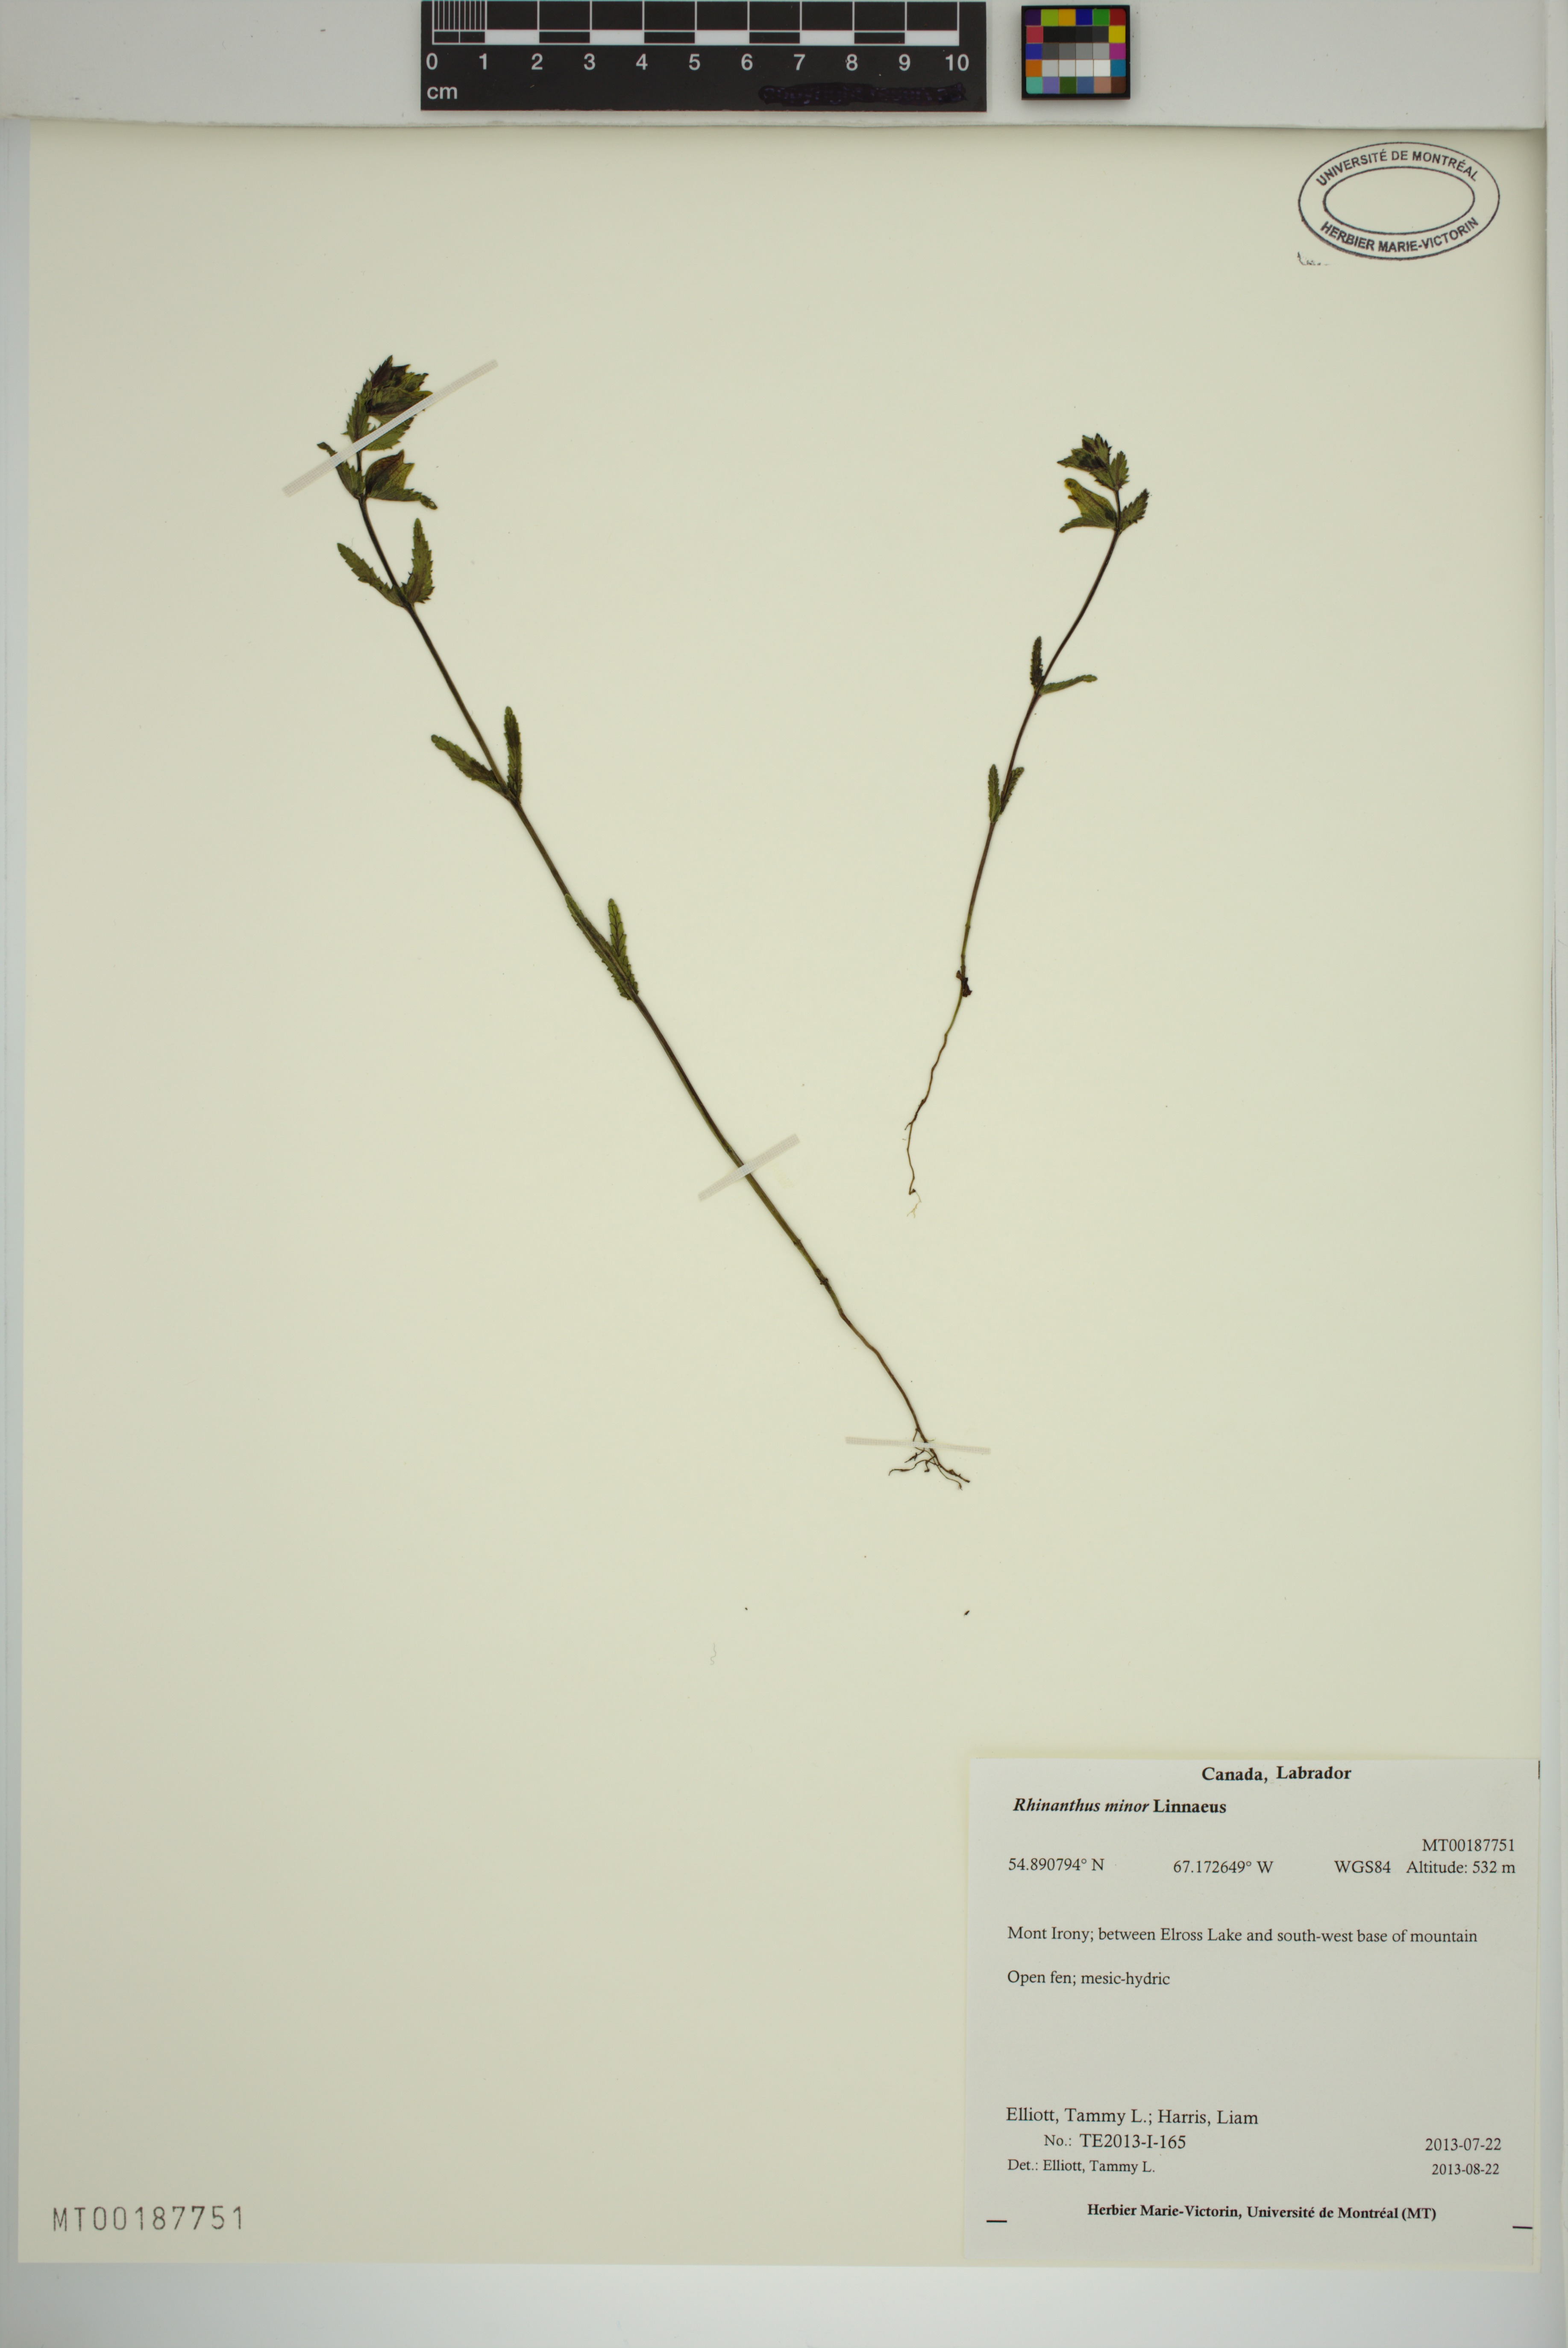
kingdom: Plantae
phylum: Tracheophyta
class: Magnoliopsida
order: Lamiales
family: Orobanchaceae
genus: Rhinanthus
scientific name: Rhinanthus minor
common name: Yellow-rattle
